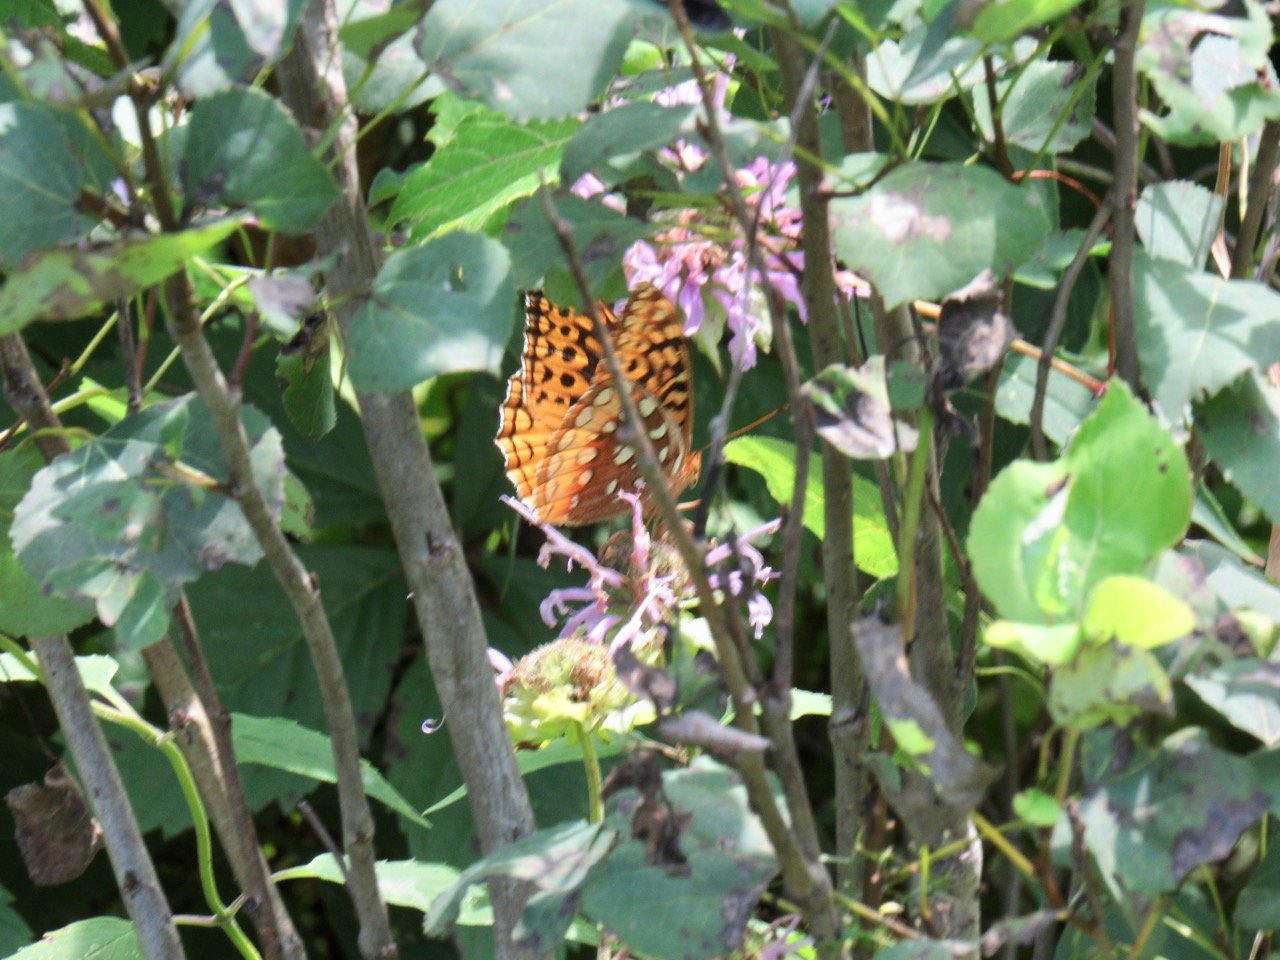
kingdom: Animalia
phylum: Arthropoda
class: Insecta
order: Lepidoptera
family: Nymphalidae
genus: Speyeria
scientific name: Speyeria cybele
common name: Great Spangled Fritillary
